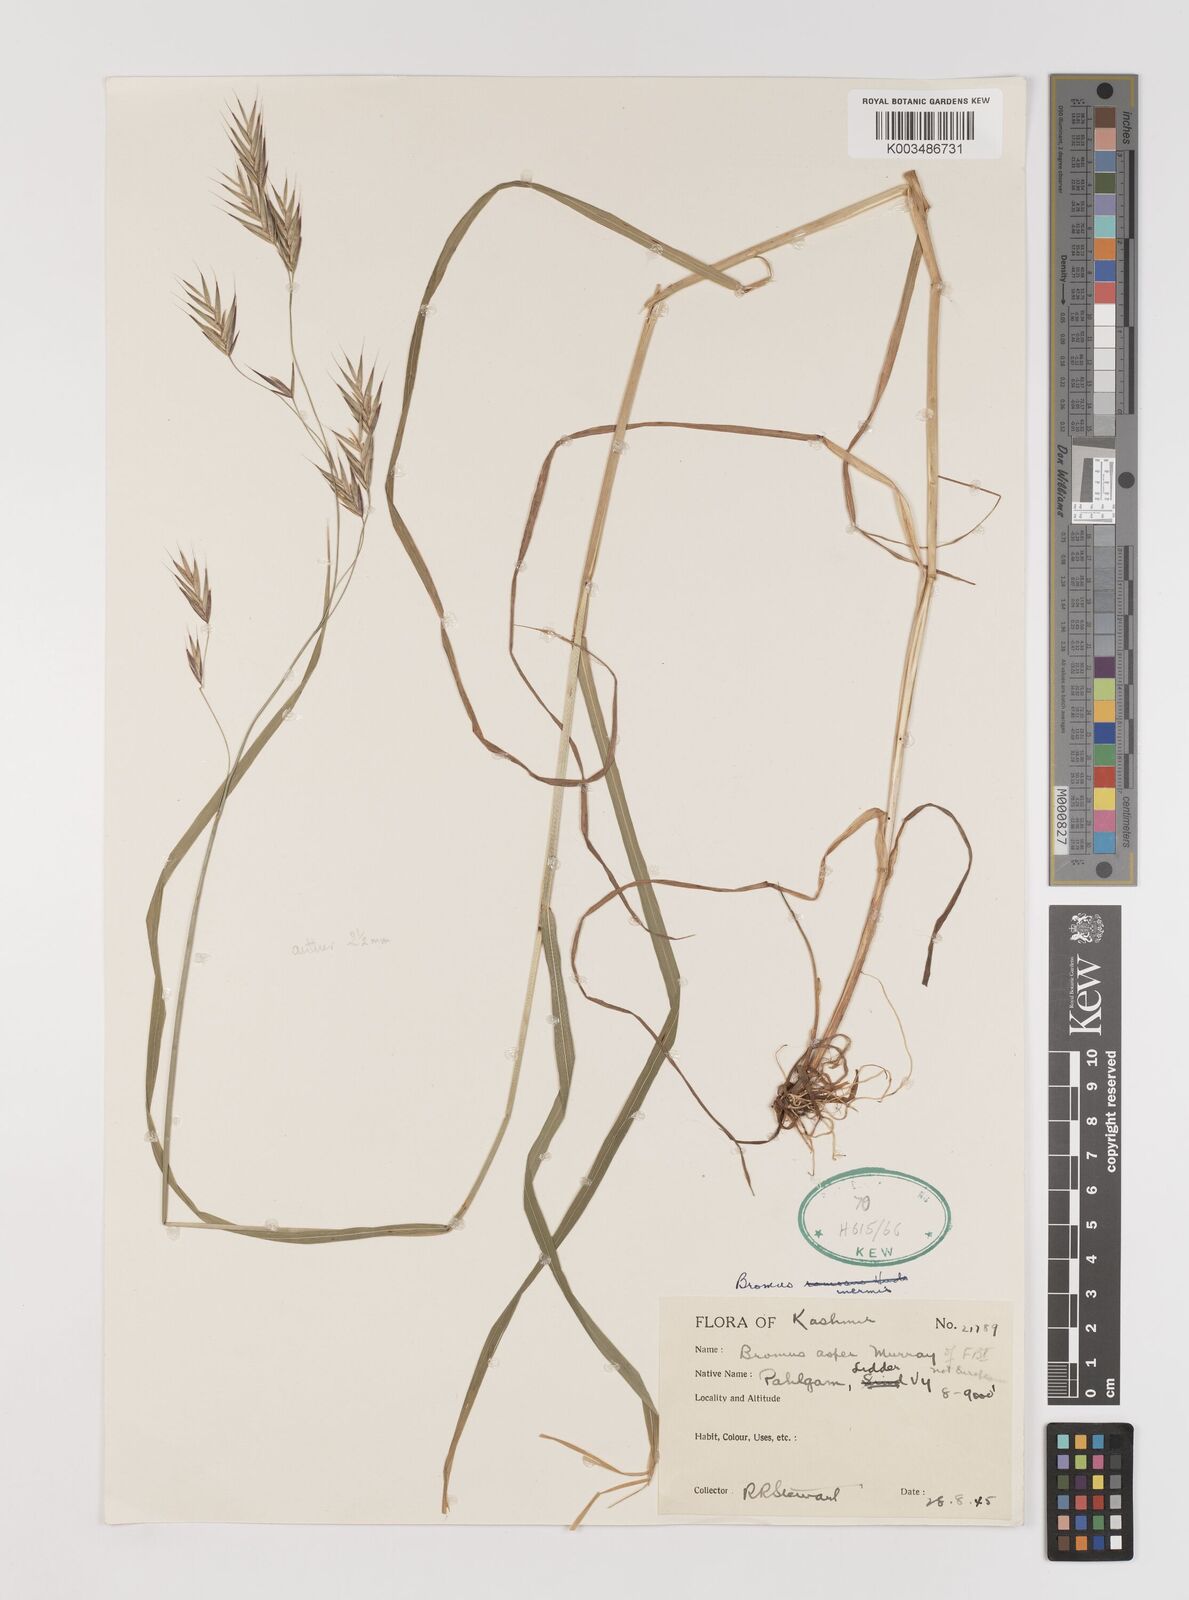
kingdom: Plantae
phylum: Tracheophyta
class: Liliopsida
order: Poales
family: Poaceae
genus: Brachypodium
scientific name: Brachypodium retusum
